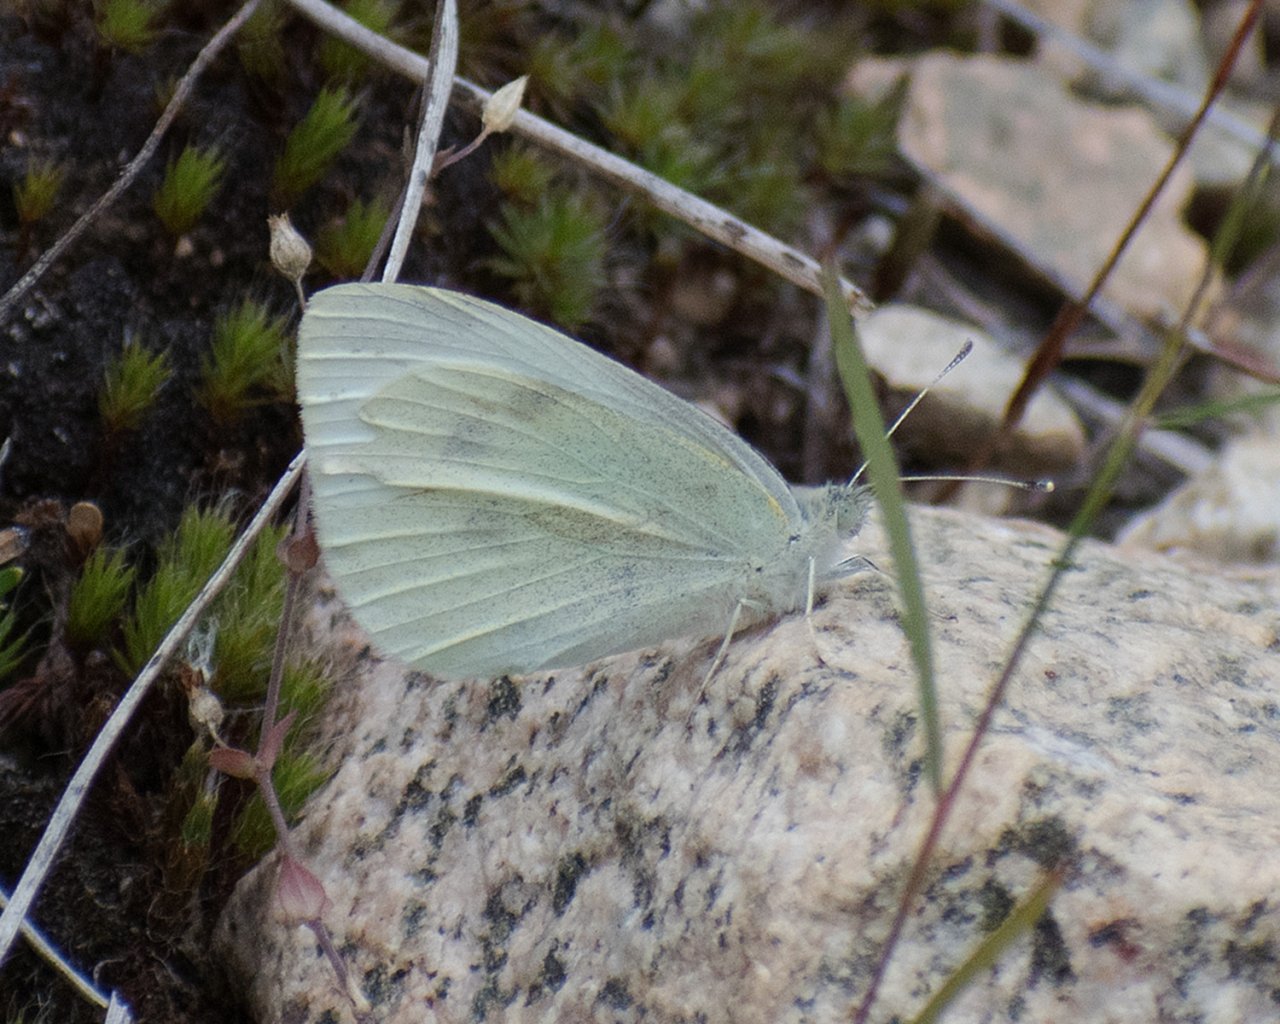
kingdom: Animalia
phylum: Arthropoda
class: Insecta
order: Lepidoptera
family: Pieridae
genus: Pieris
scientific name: Pieris rapae
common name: Cabbage White
